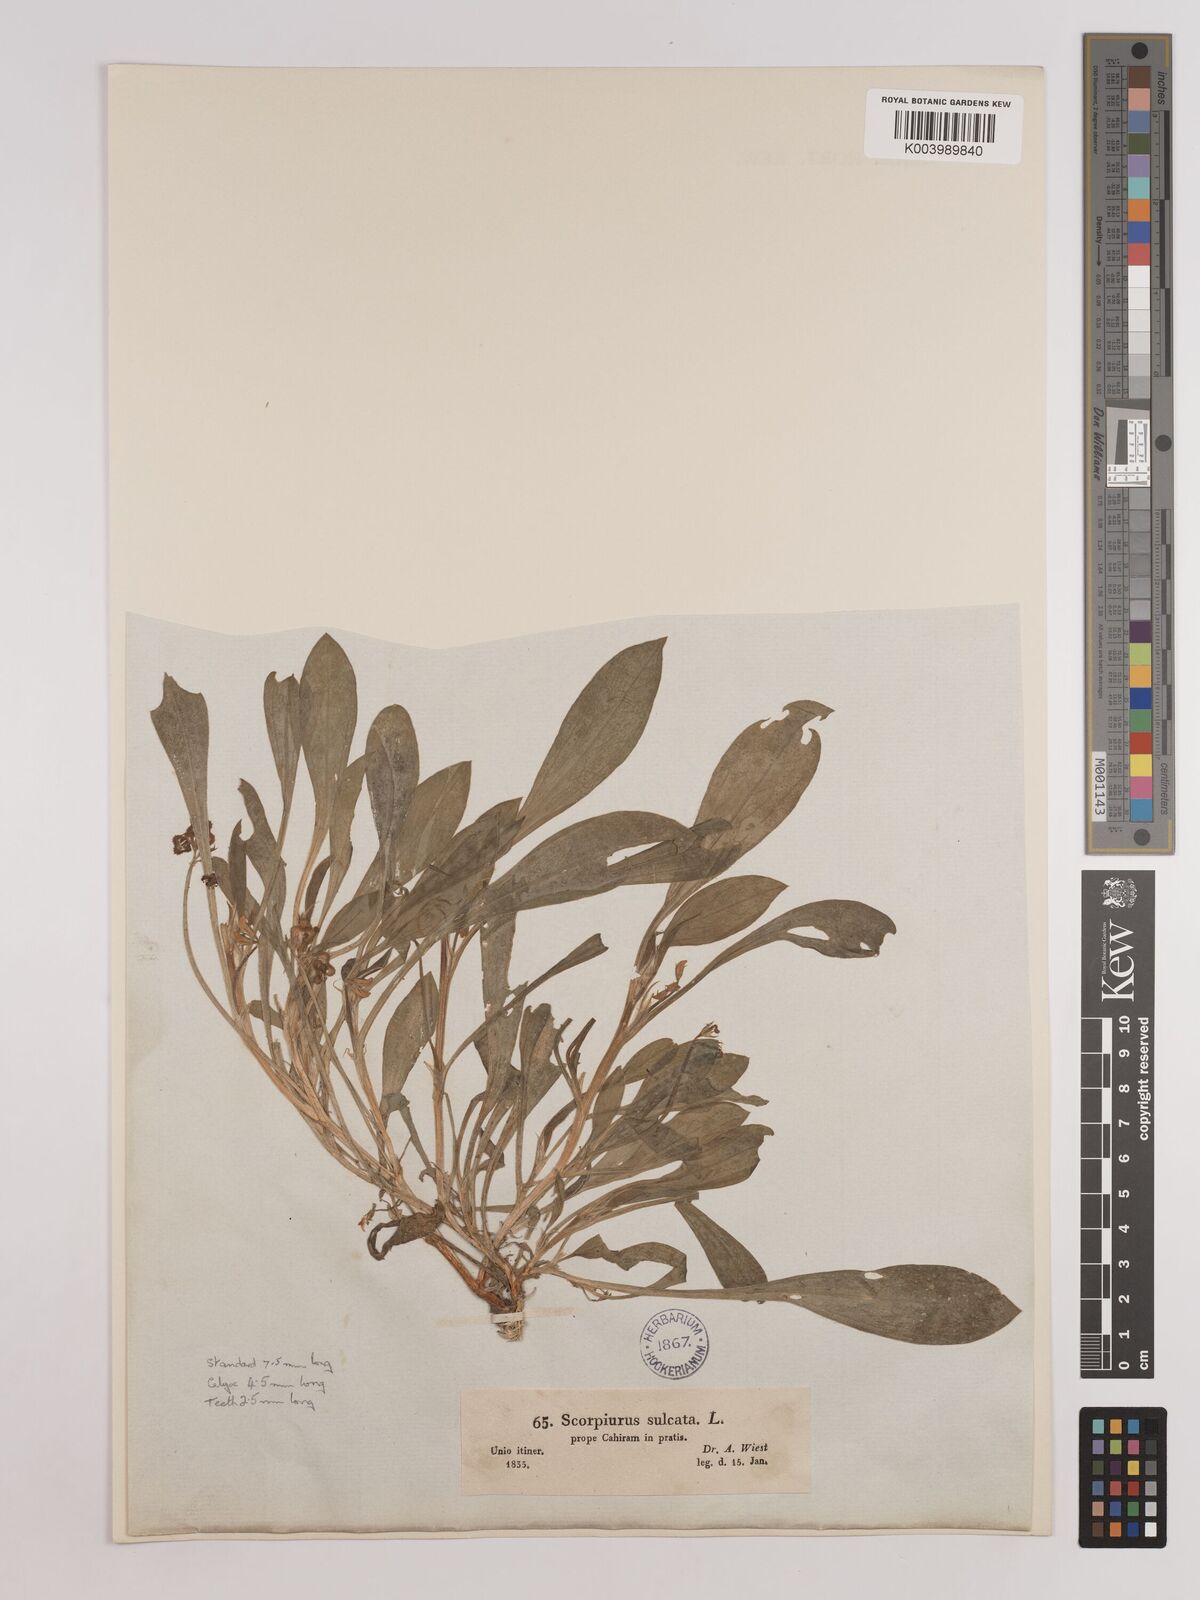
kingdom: Plantae
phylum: Tracheophyta
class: Magnoliopsida
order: Fabales
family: Fabaceae
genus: Scorpiurus
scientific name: Scorpiurus muricatus
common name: Caterpillar-plant
